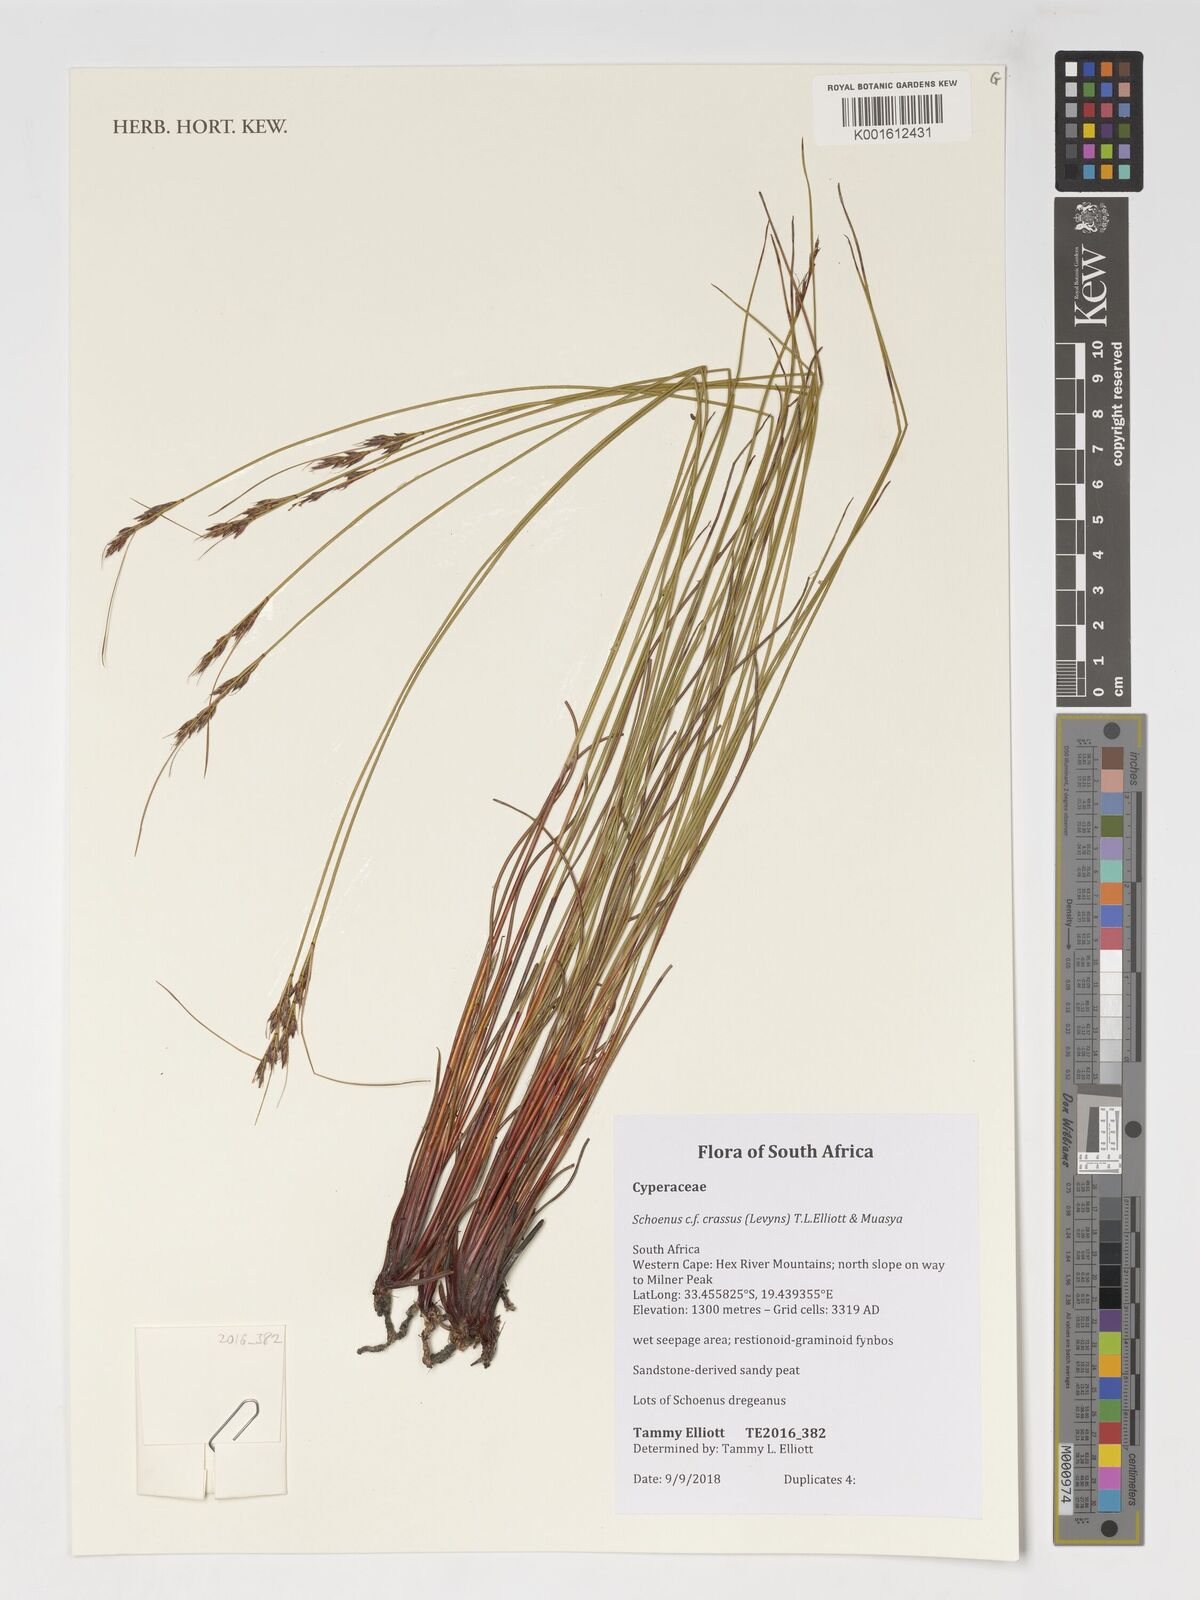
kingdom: Plantae
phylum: Tracheophyta
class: Liliopsida
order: Poales
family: Cyperaceae
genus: Schoenus
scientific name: Schoenus crassus
